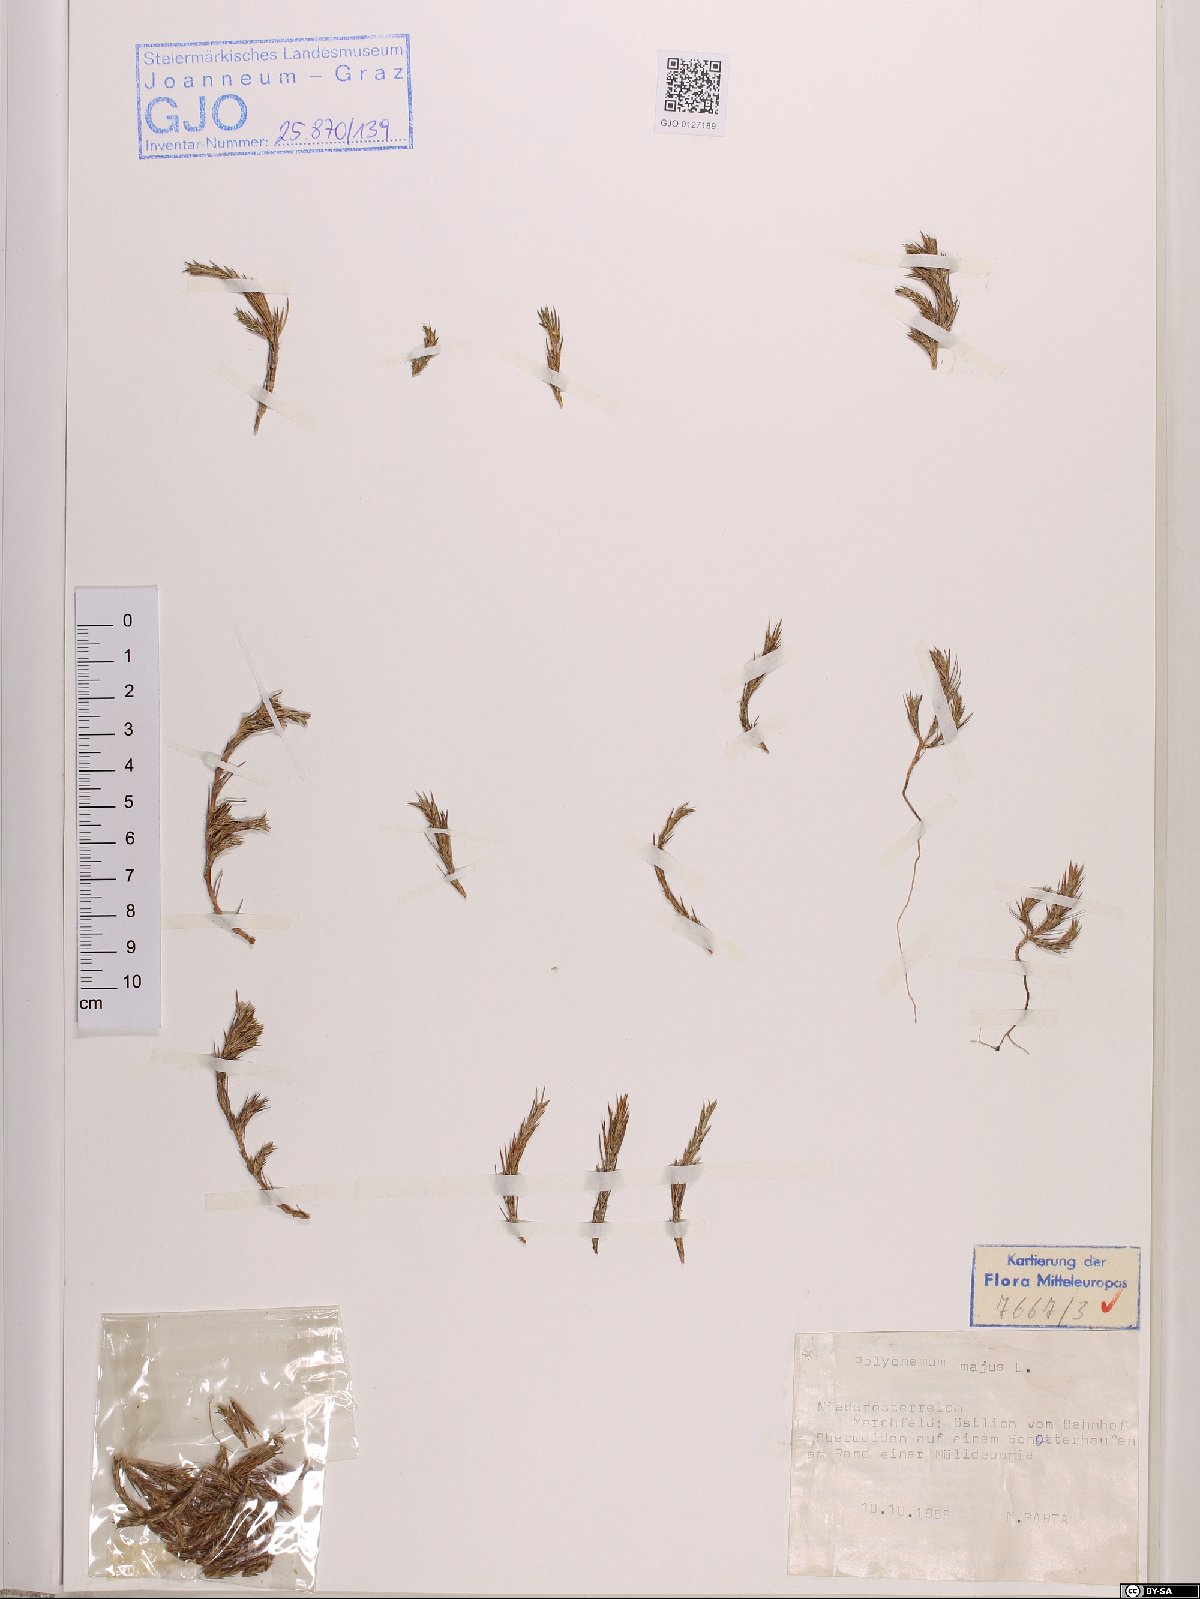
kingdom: Plantae
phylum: Tracheophyta
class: Magnoliopsida
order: Caryophyllales
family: Amaranthaceae
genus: Polycnemum
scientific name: Polycnemum majus
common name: Giant needleleaf
